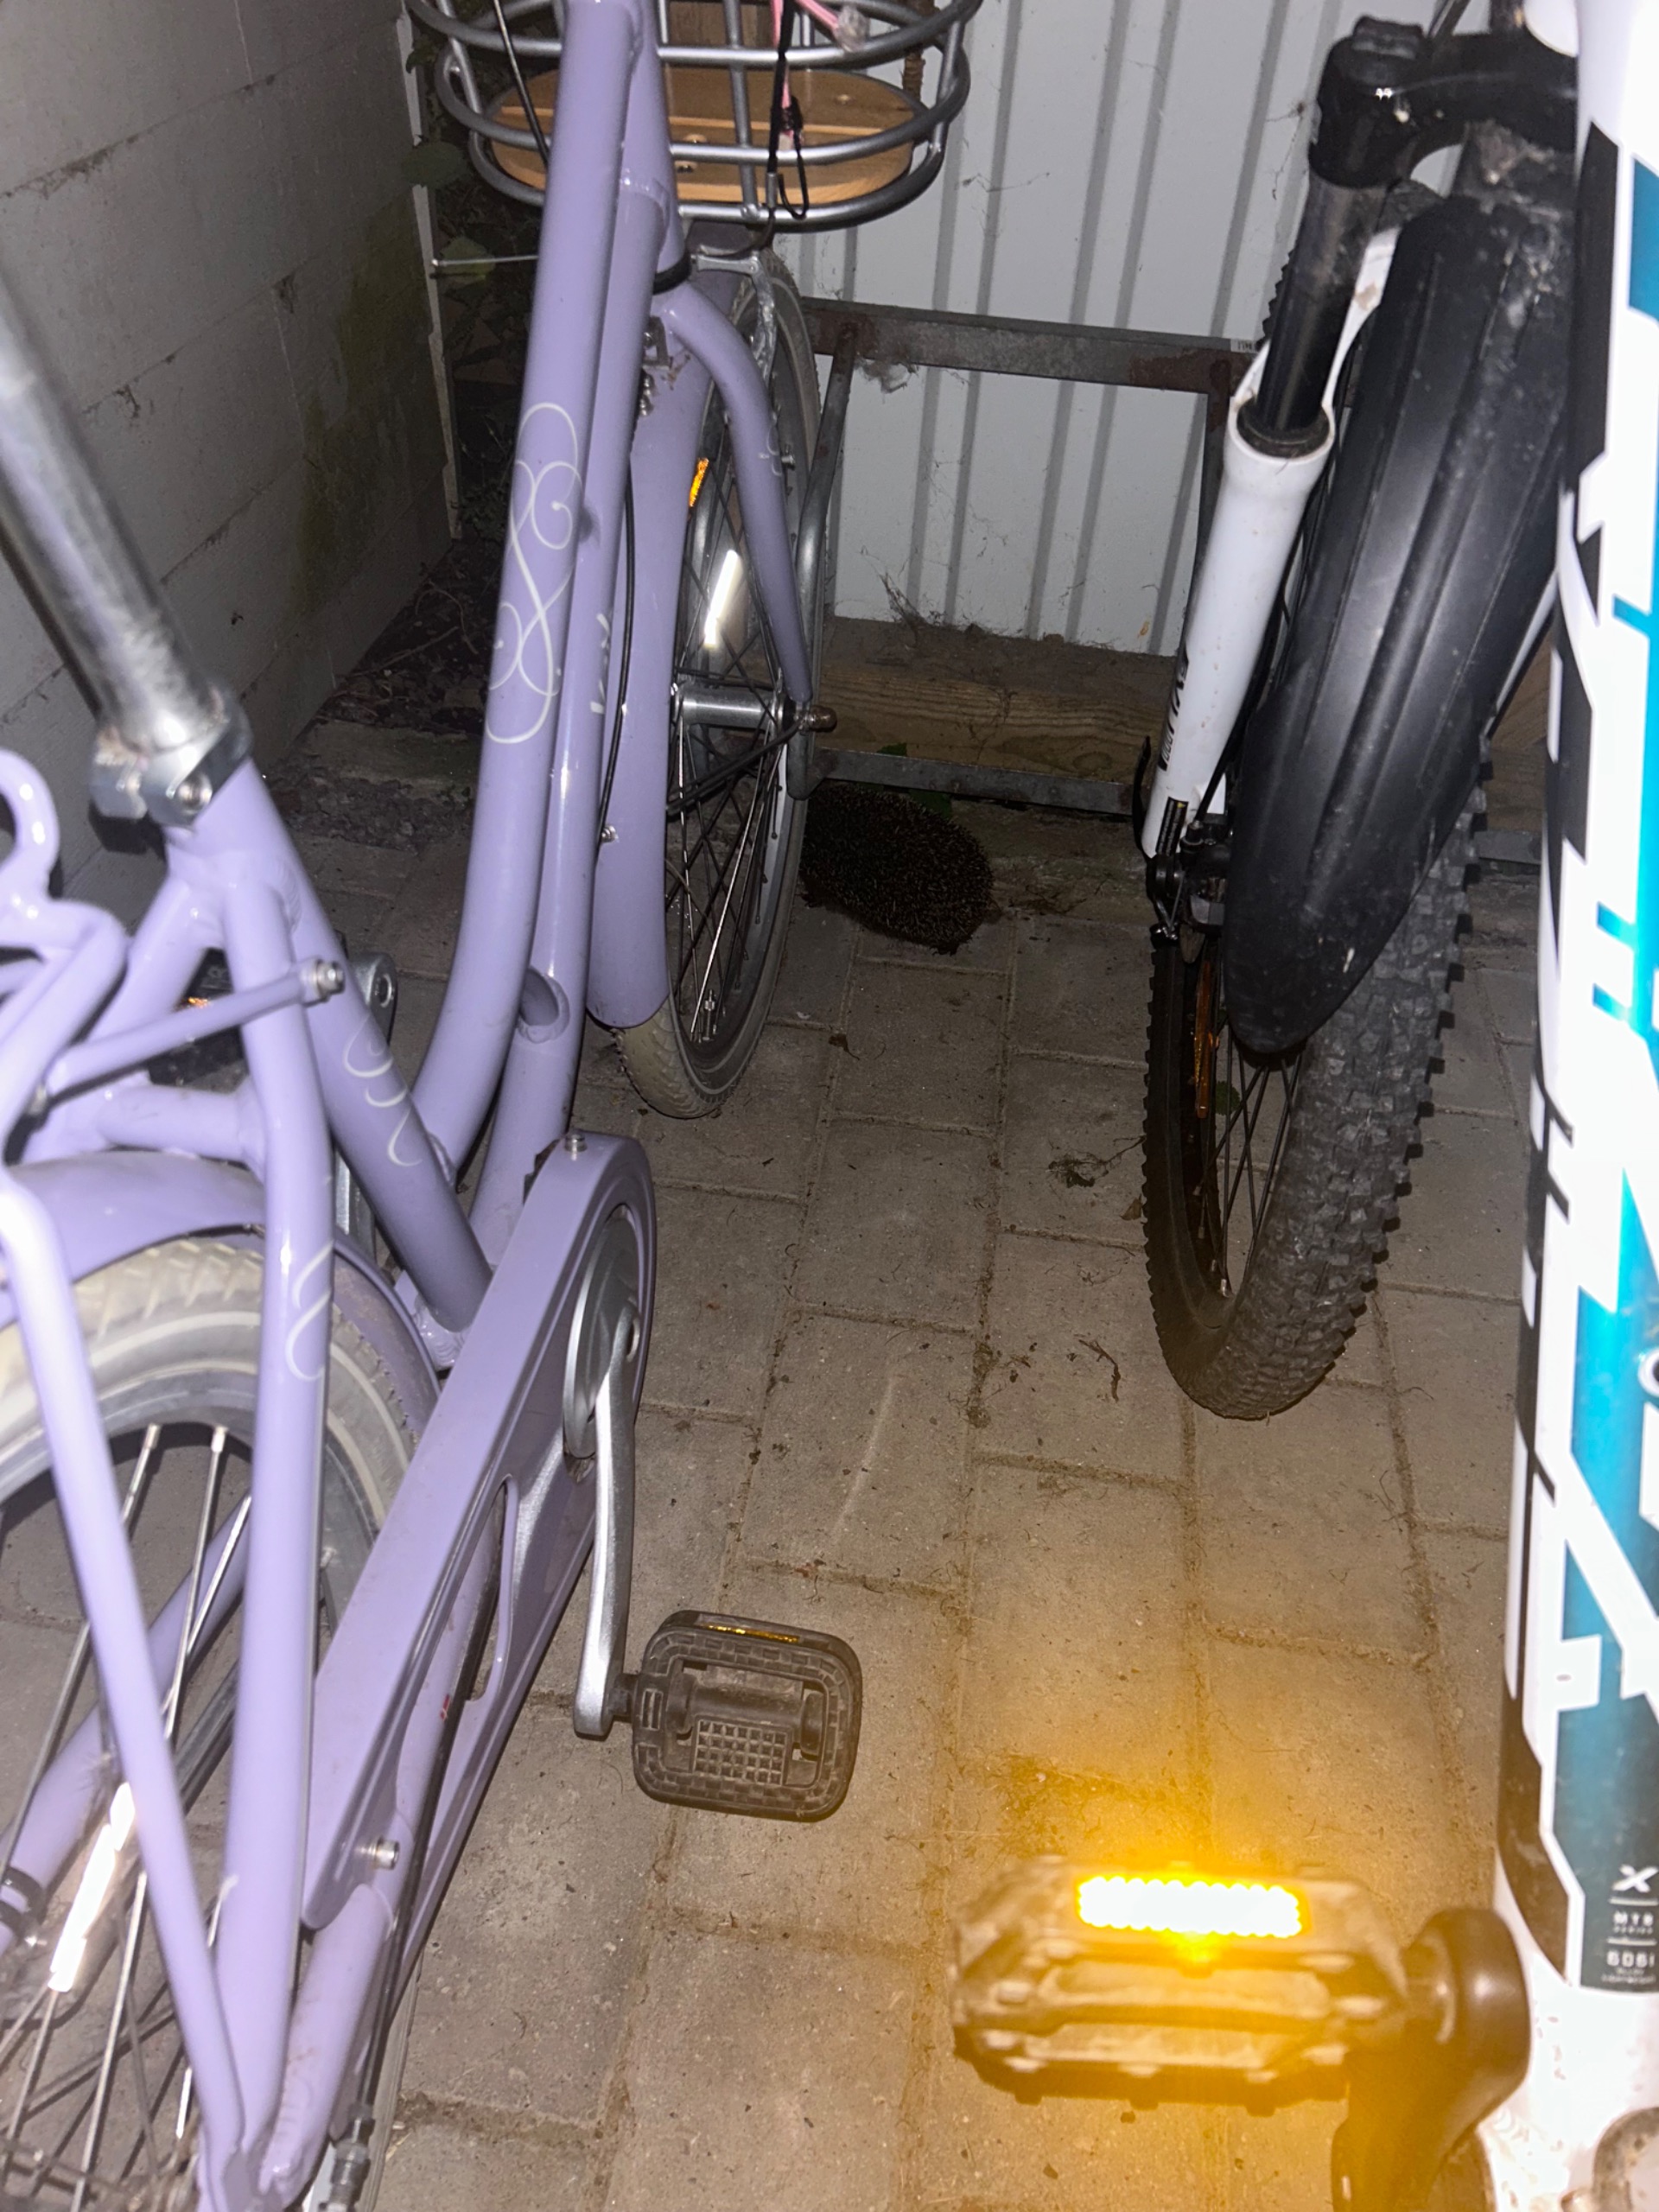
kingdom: Animalia
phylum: Chordata
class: Mammalia
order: Erinaceomorpha
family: Erinaceidae
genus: Erinaceus
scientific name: Erinaceus europaeus
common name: Pindsvin
